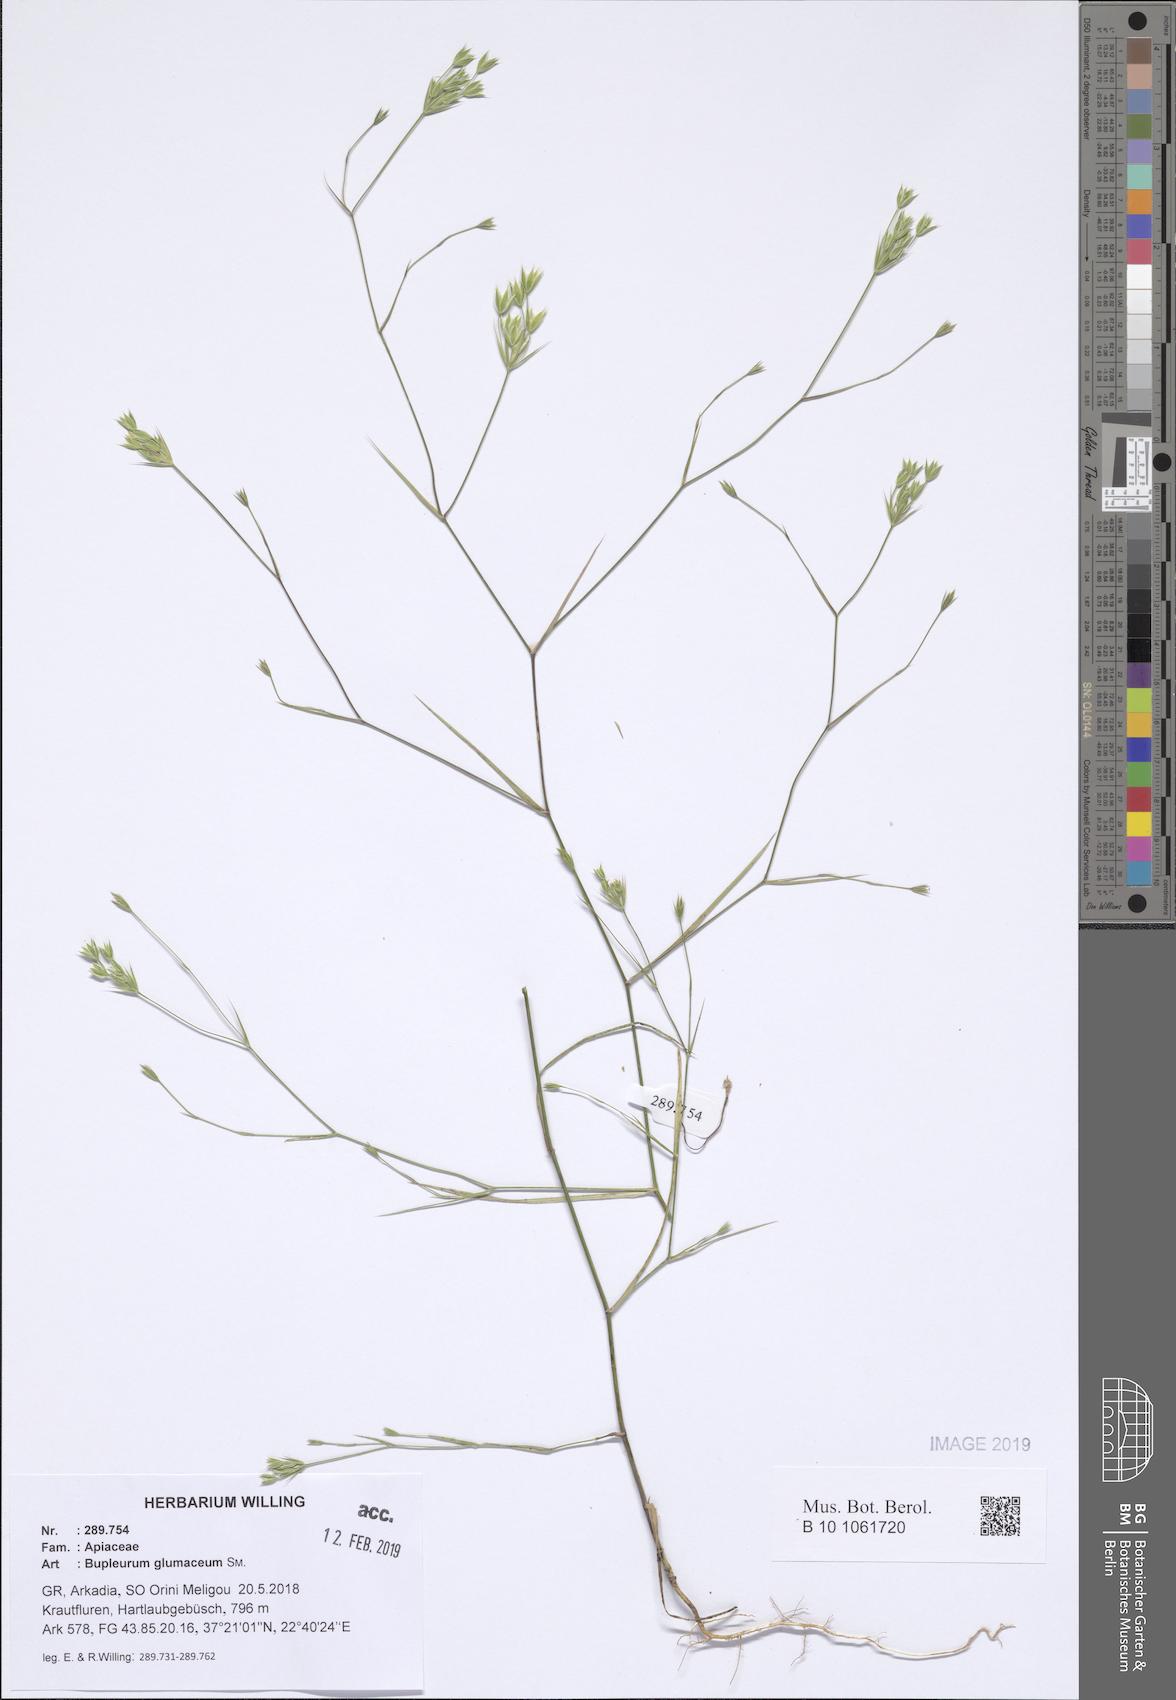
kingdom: Plantae
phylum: Tracheophyta
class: Magnoliopsida
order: Apiales
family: Apiaceae
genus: Bupleurum
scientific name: Bupleurum glumaceum
